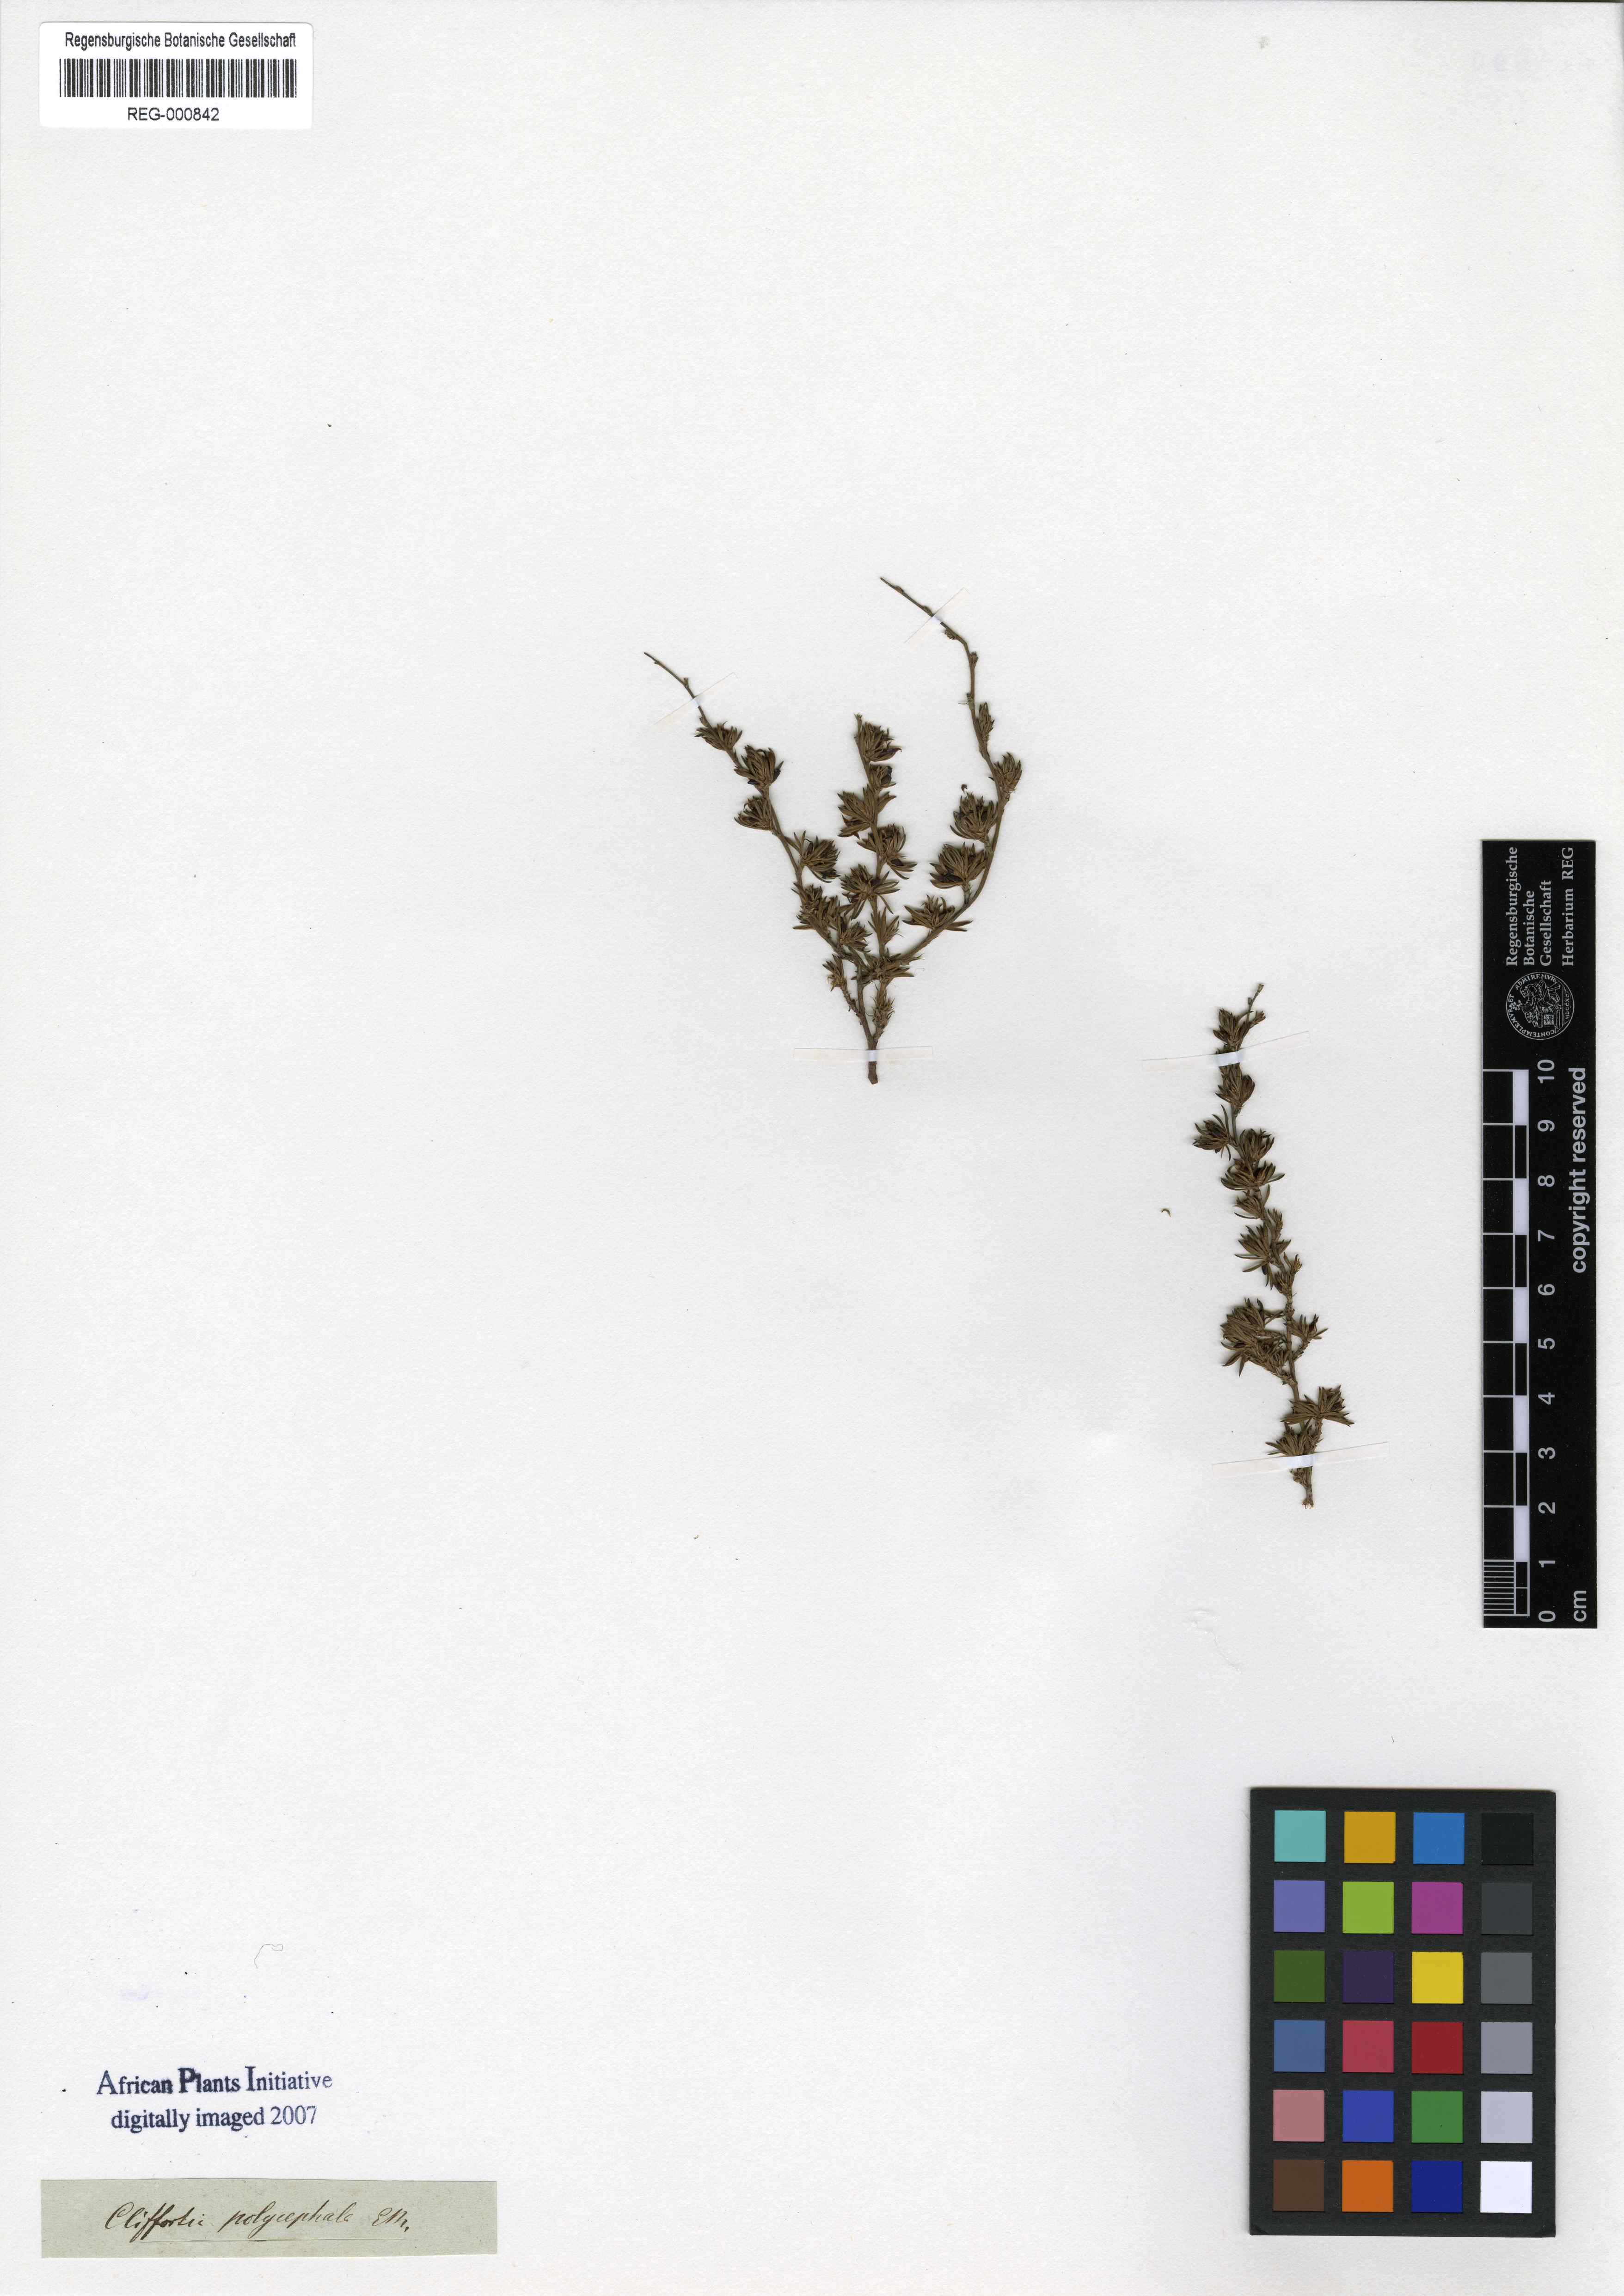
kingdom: Plantae
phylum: Tracheophyta
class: Magnoliopsida
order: Rosales
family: Rosaceae
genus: Cliffortia
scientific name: Cliffortia sericea
